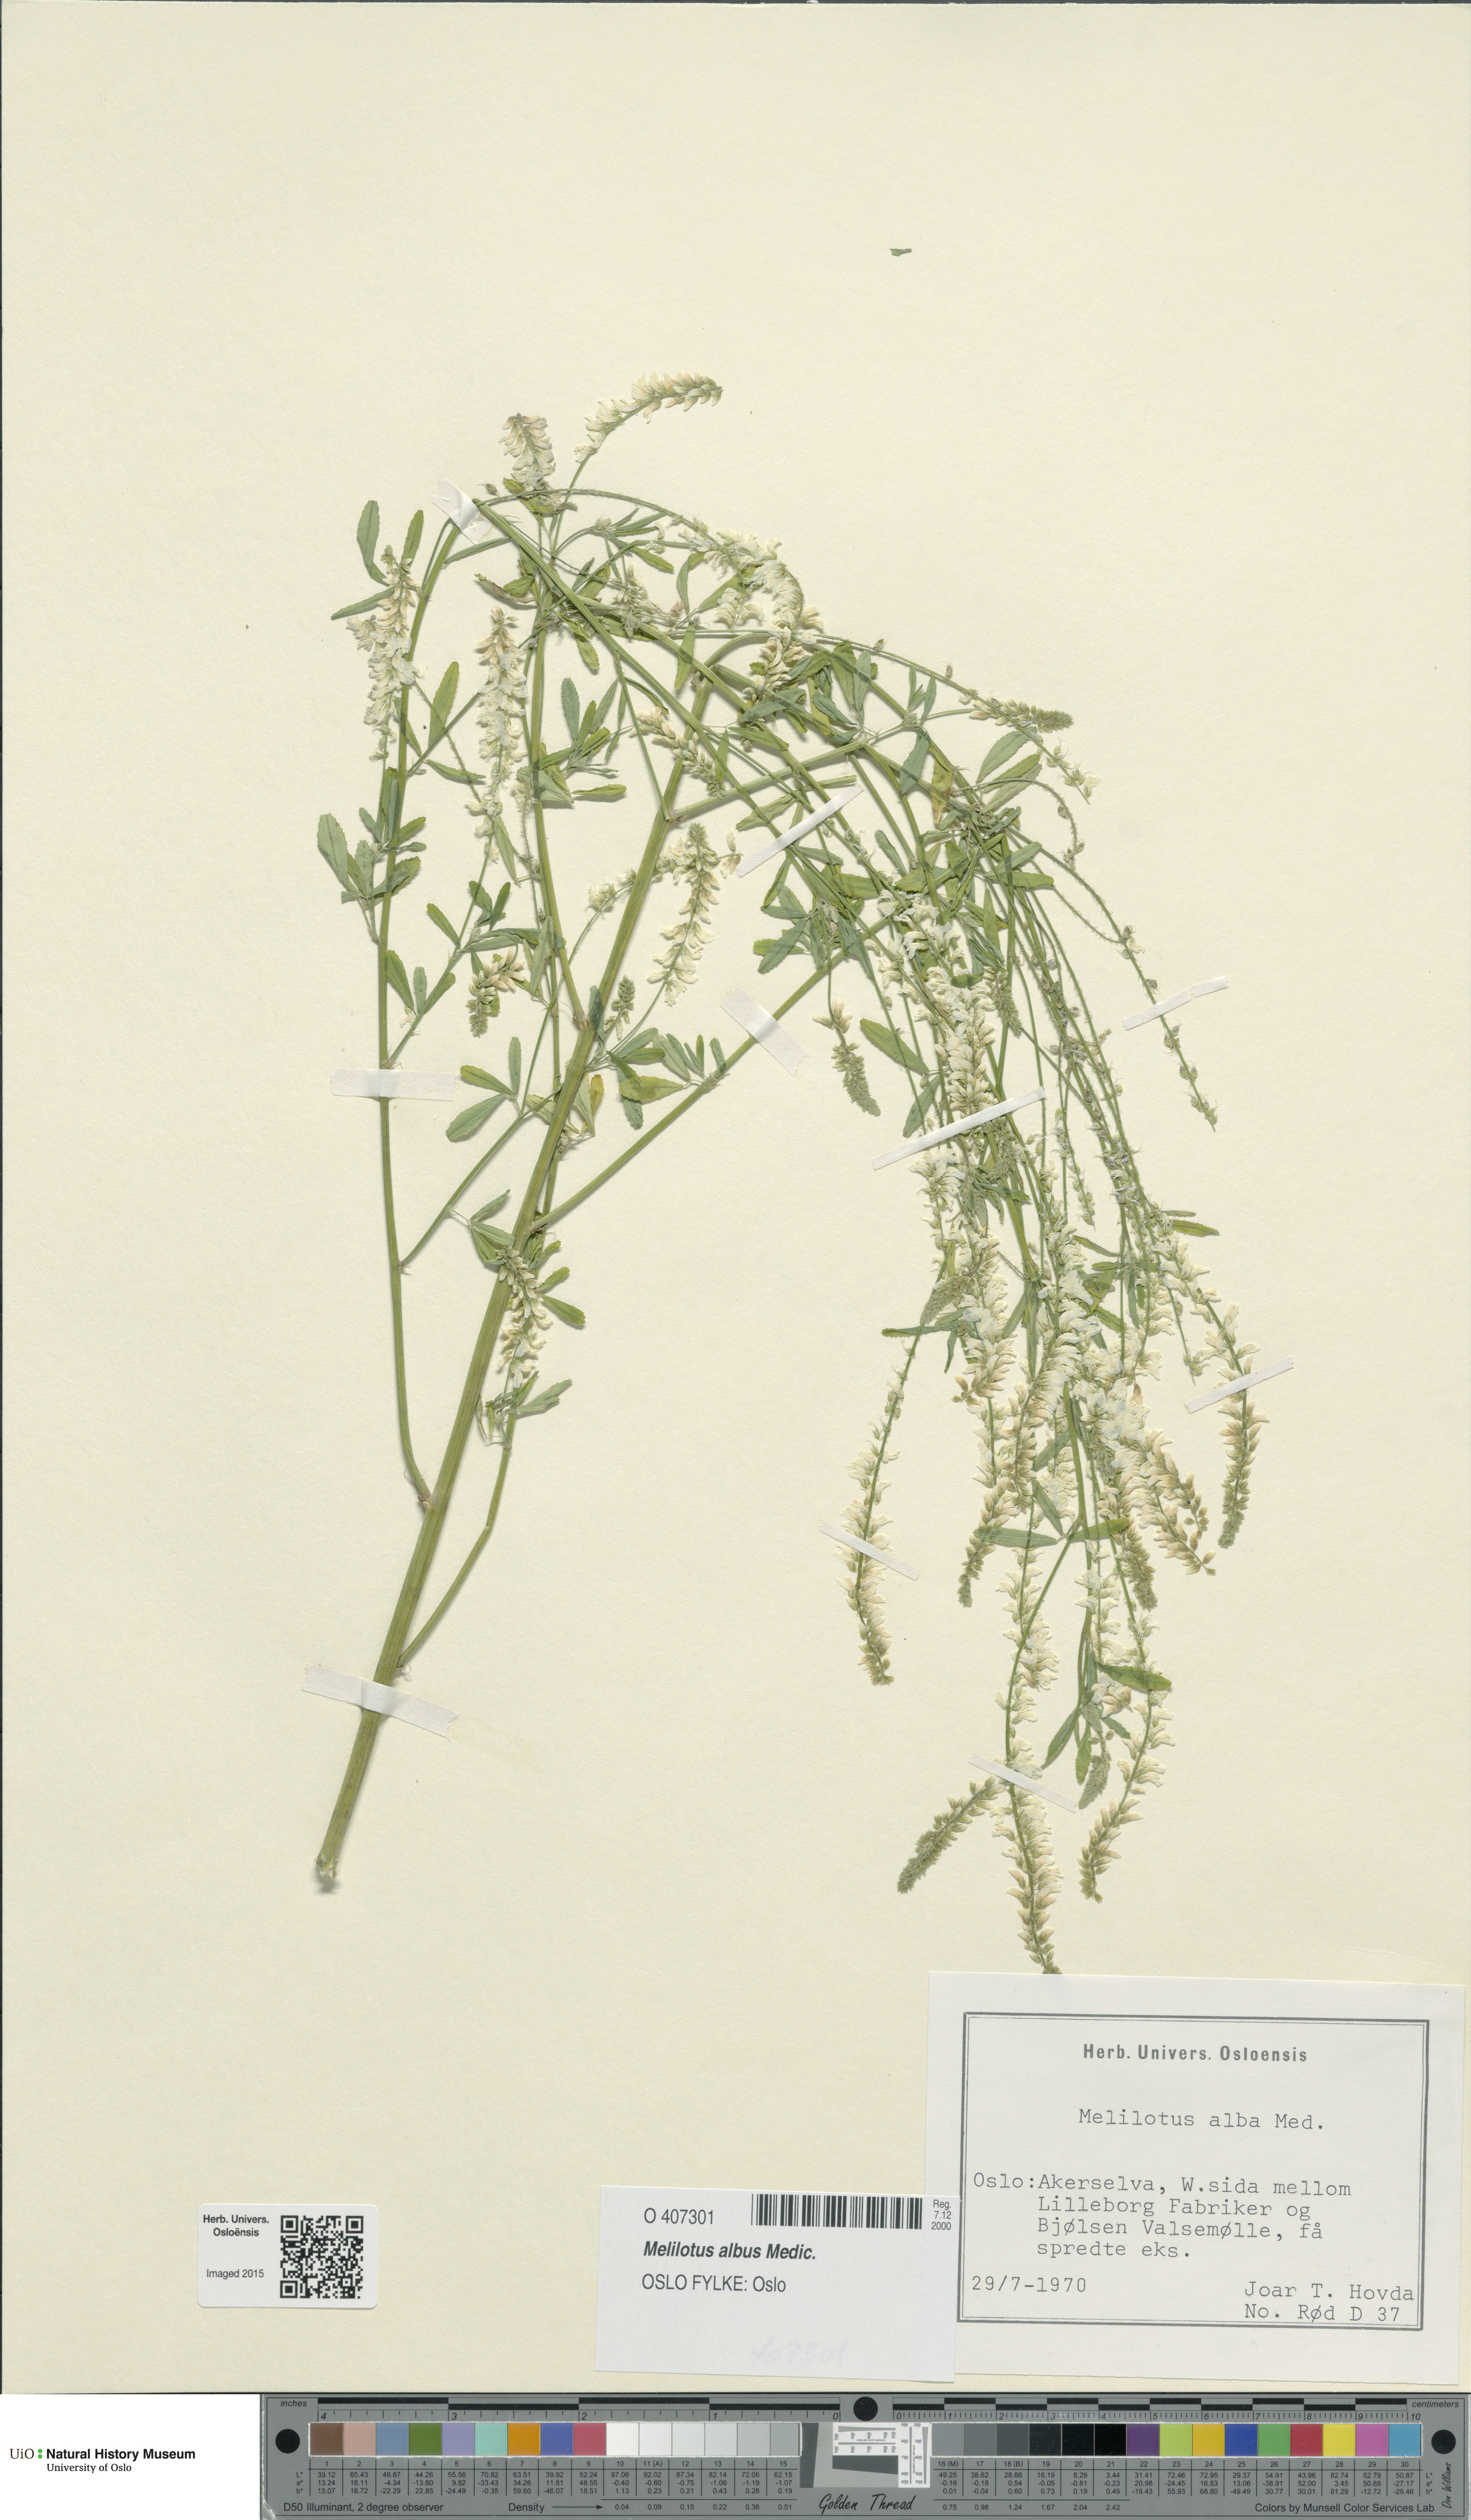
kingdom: Plantae
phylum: Tracheophyta
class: Magnoliopsida
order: Fabales
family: Fabaceae
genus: Melilotus
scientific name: Melilotus albus
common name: White melilot
